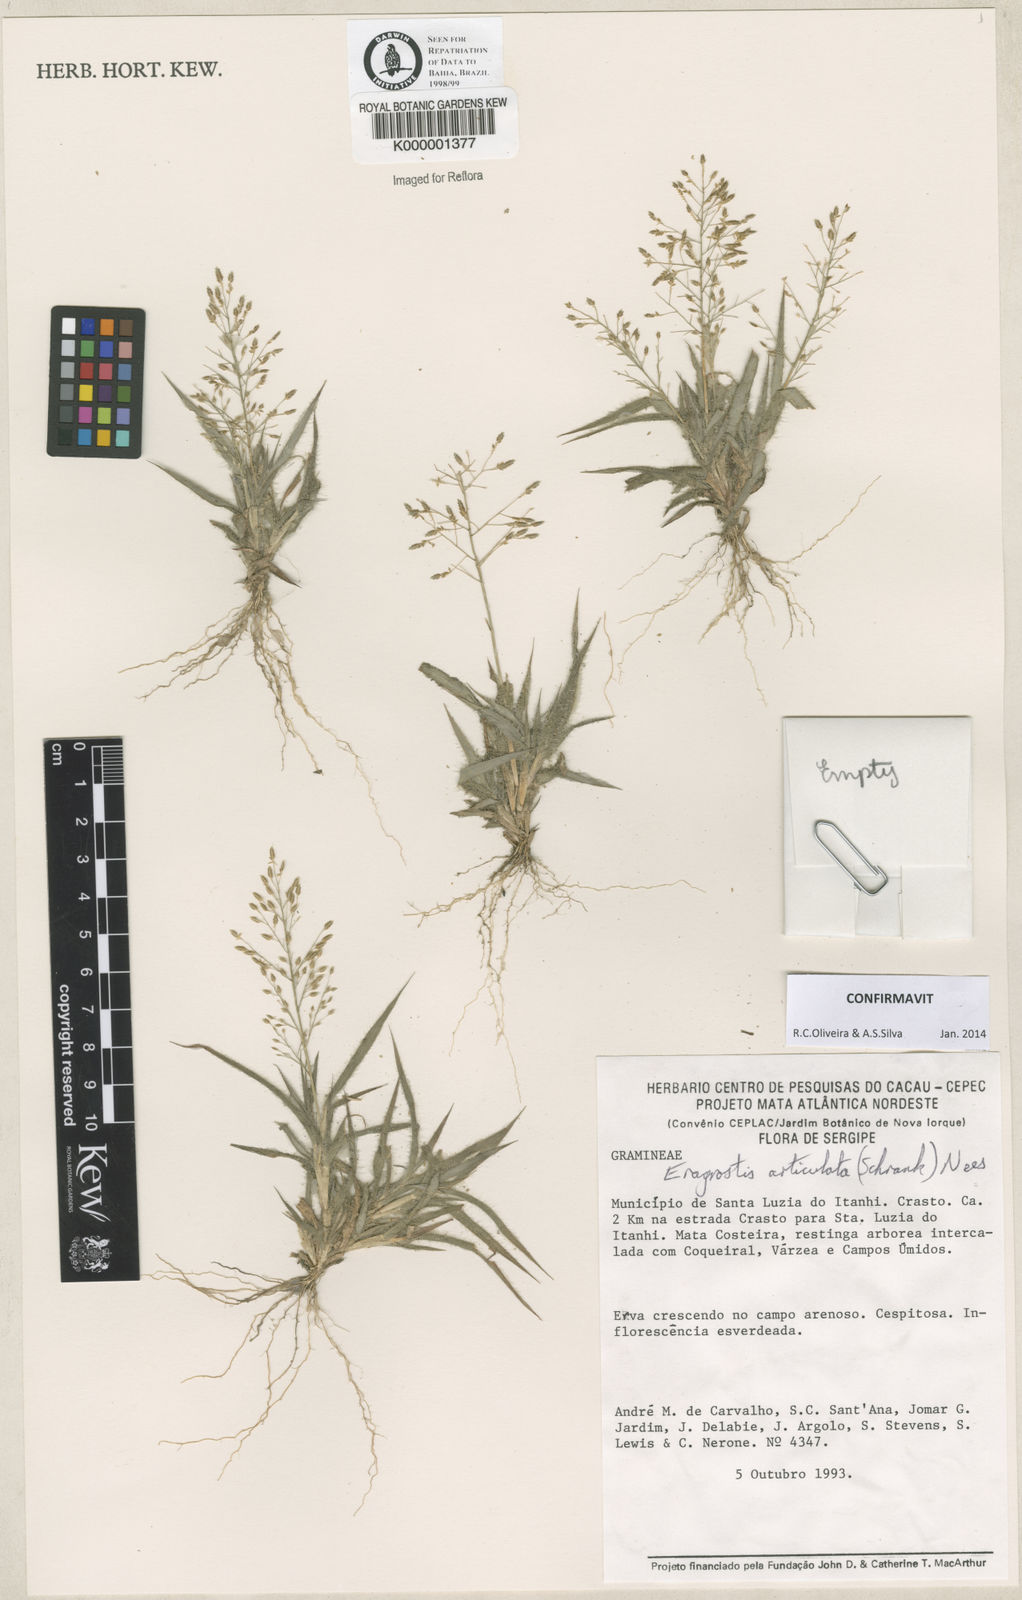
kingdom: Plantae
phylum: Tracheophyta
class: Liliopsida
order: Poales
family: Poaceae
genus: Eragrostis
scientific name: Eragrostis articulata
